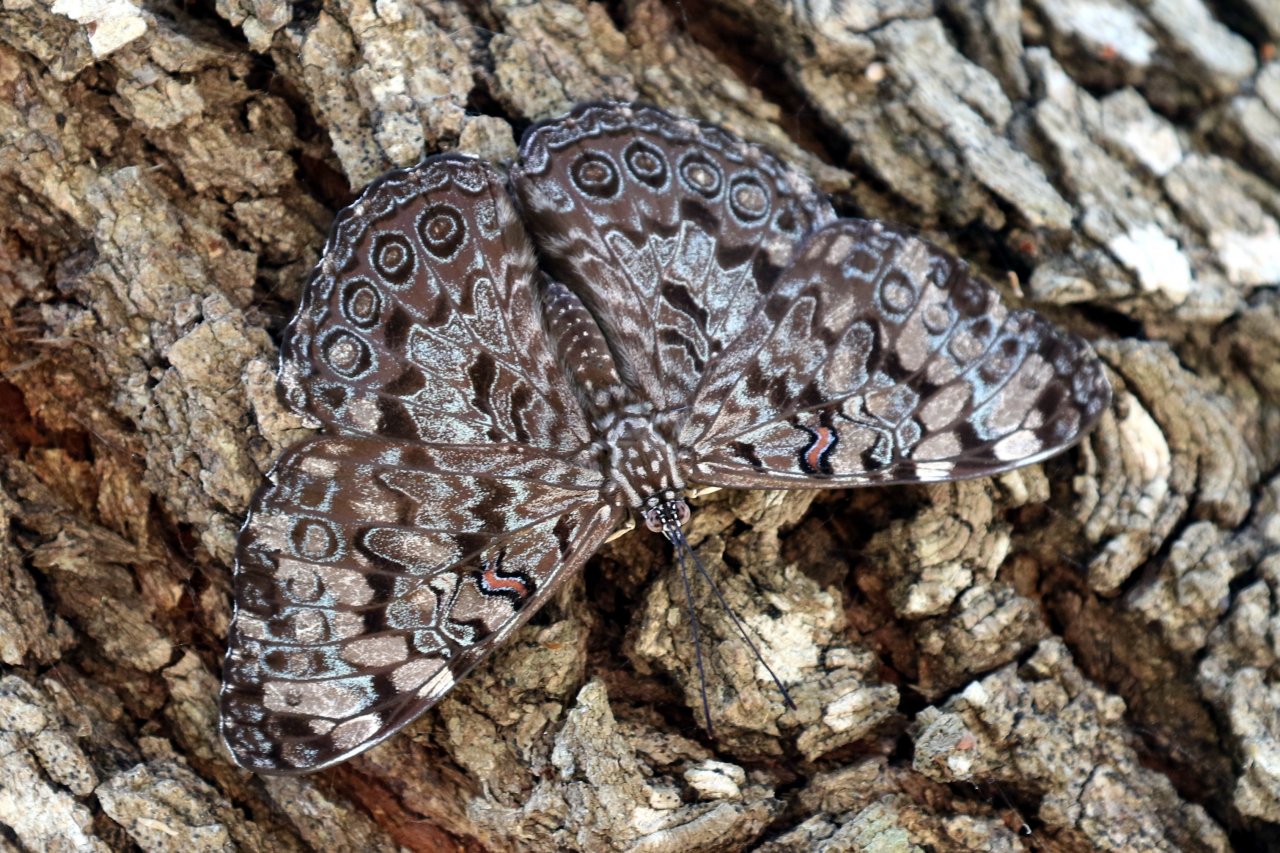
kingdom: Animalia
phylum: Arthropoda
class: Insecta
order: Lepidoptera
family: Nymphalidae
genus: Hamadryas
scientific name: Hamadryas guatemalena
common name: Guatemalan Cracker
